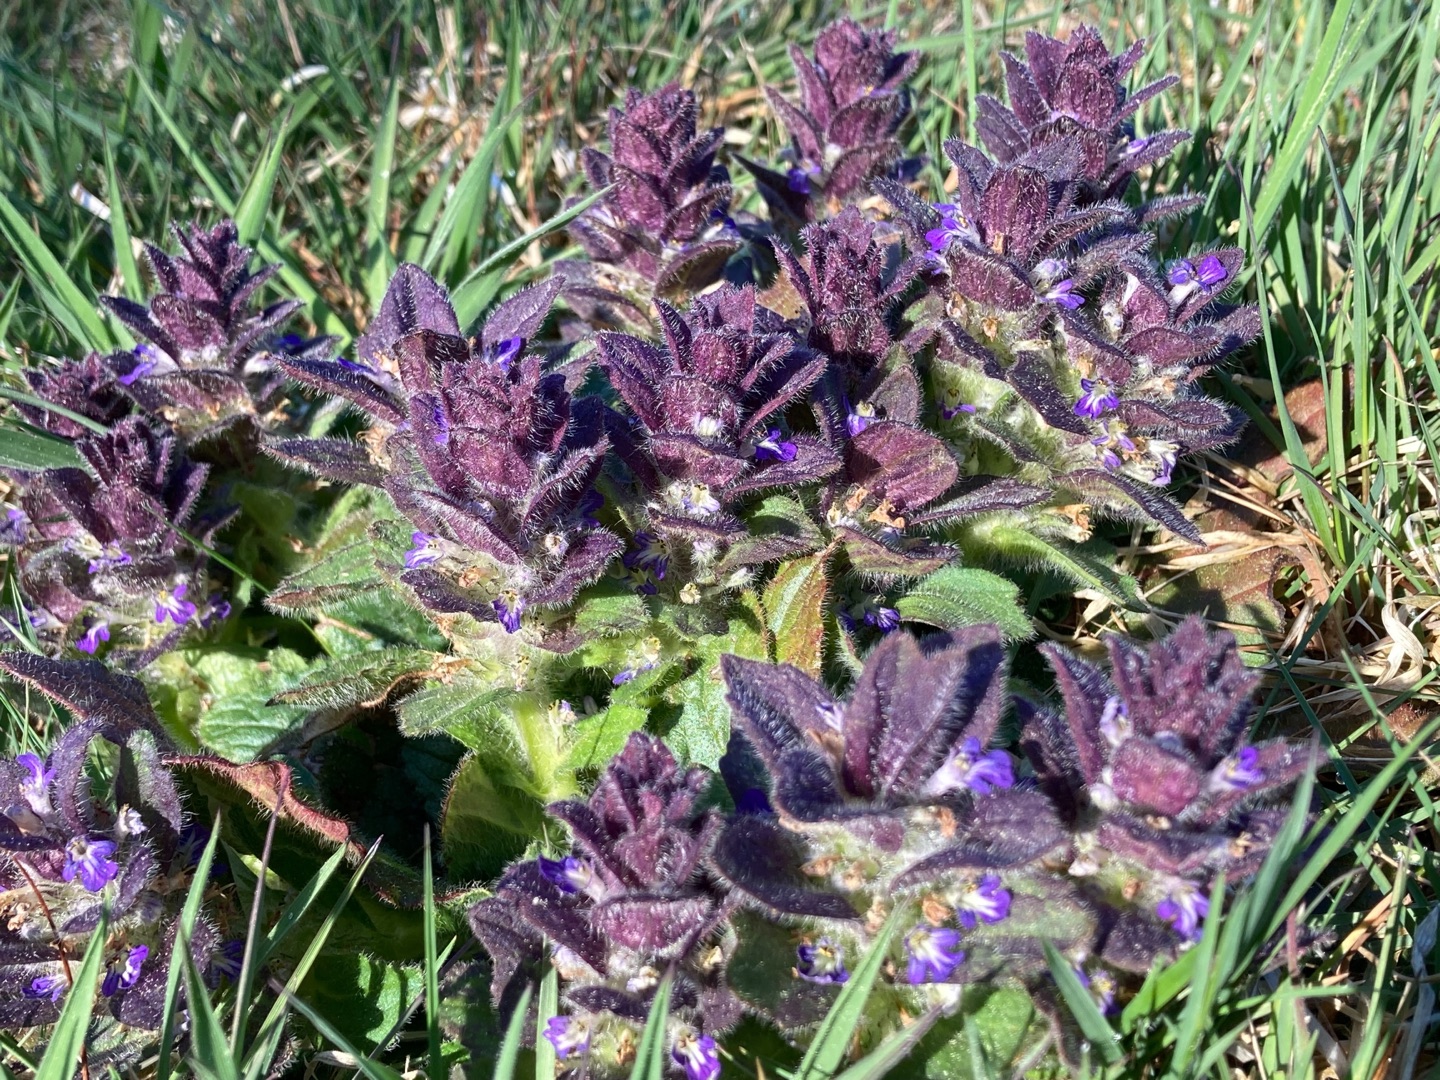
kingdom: Plantae
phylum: Tracheophyta
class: Magnoliopsida
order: Lamiales
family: Lamiaceae
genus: Ajuga
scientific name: Ajuga pyramidalis
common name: Pyramide-læbeløs
